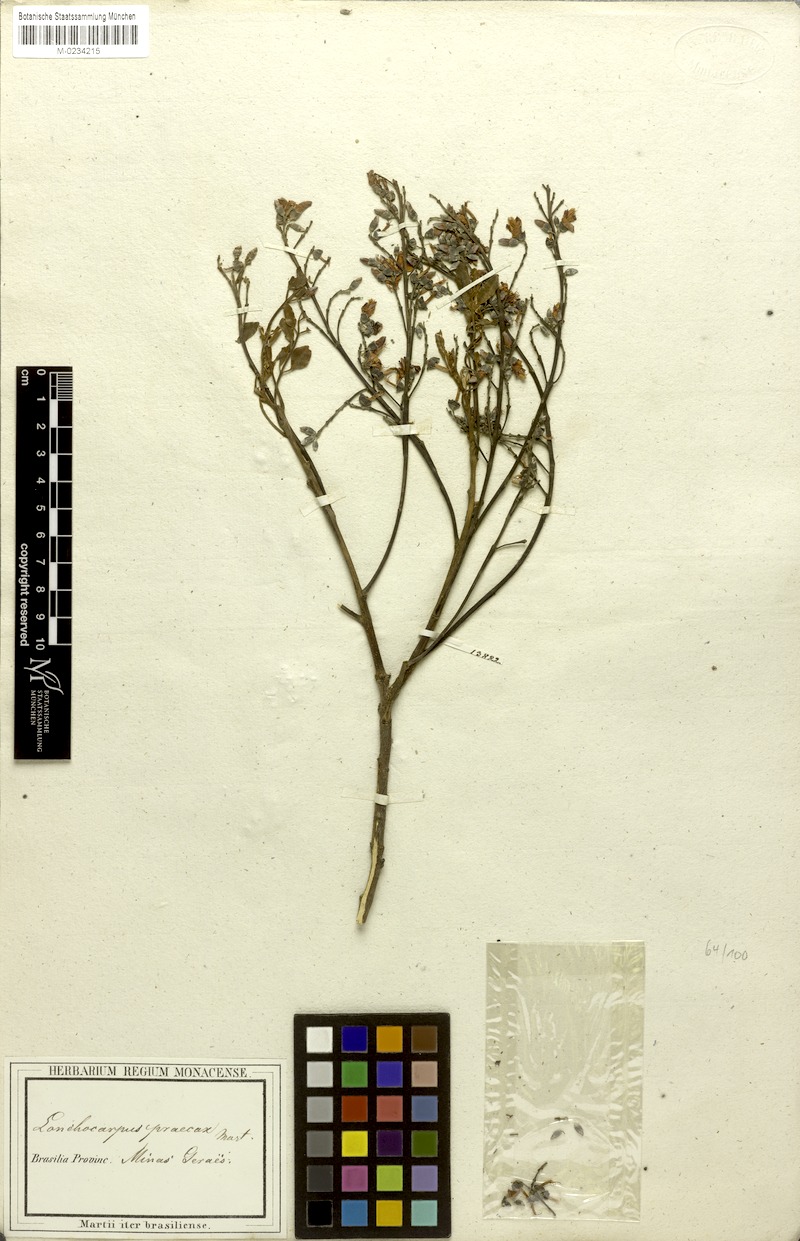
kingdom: Plantae
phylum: Tracheophyta
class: Magnoliopsida
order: Fabales
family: Fabaceae
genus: Lonchocarpus
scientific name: Lonchocarpus praecox
